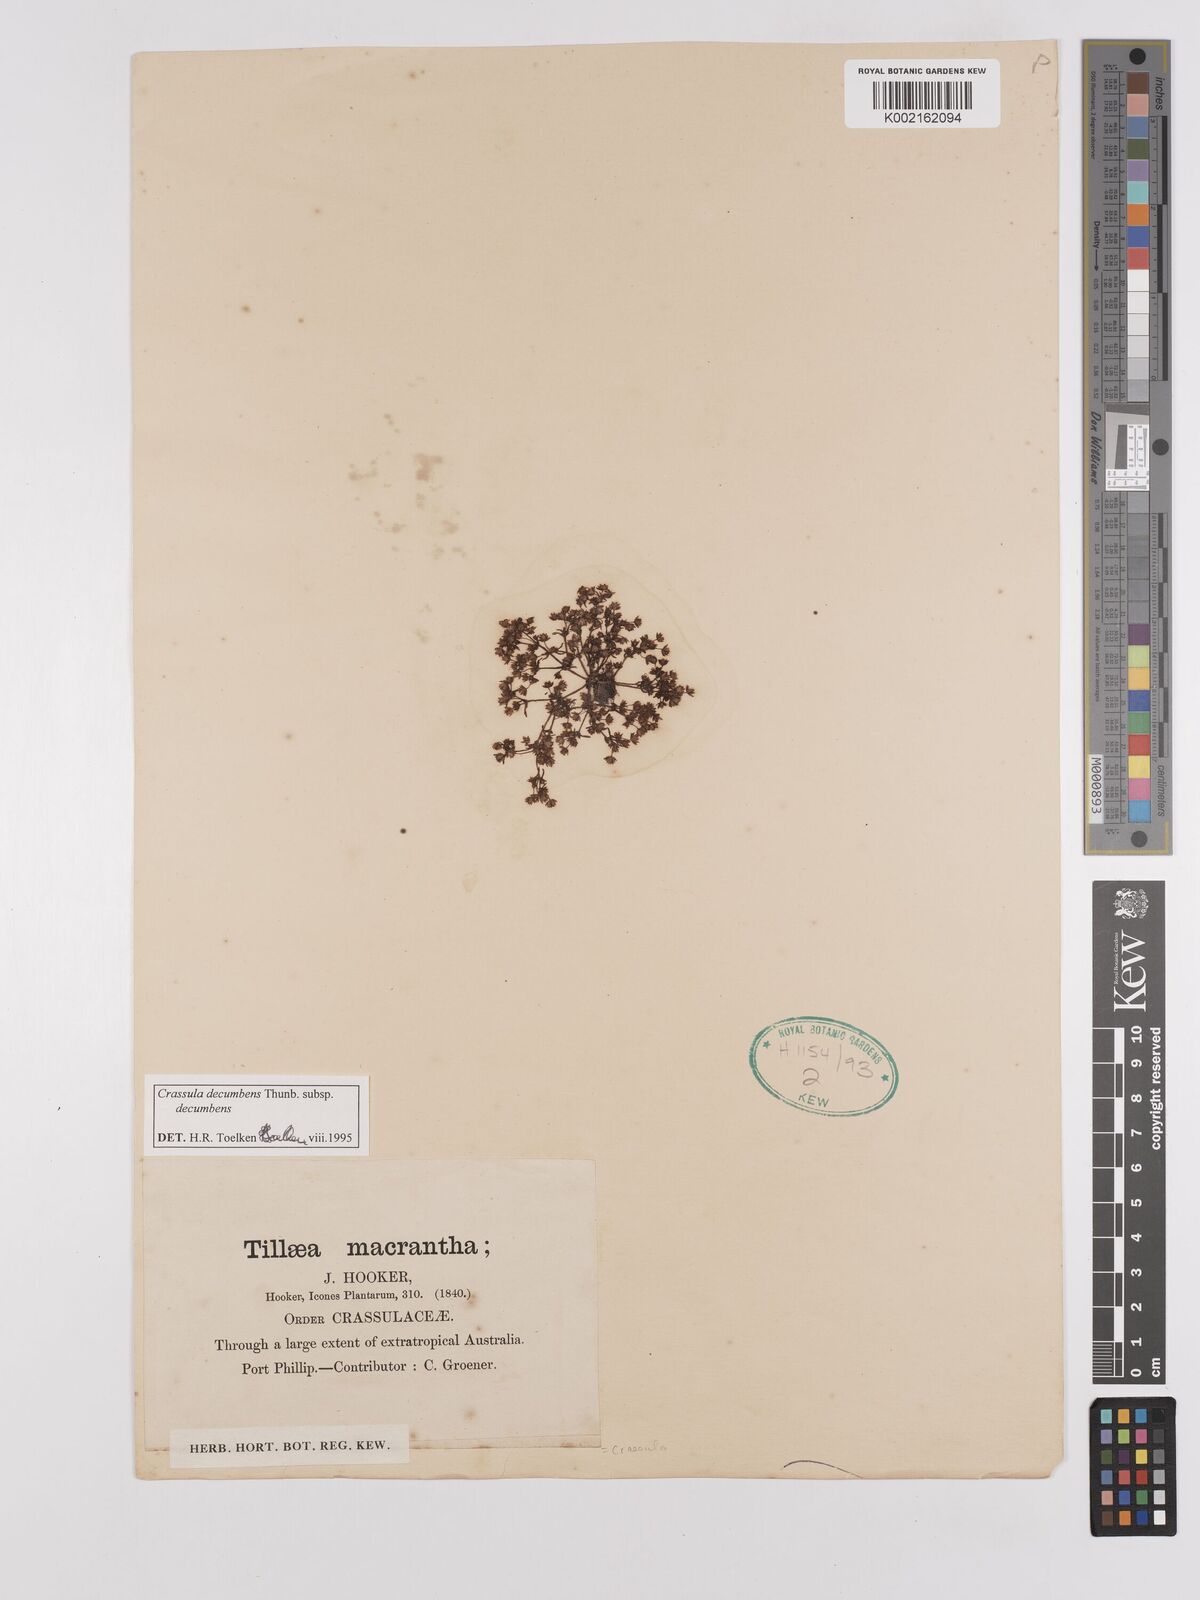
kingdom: Plantae
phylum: Tracheophyta
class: Magnoliopsida
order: Saxifragales
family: Crassulaceae
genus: Crassula
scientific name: Crassula decumbens
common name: Scilly pigmyweed
